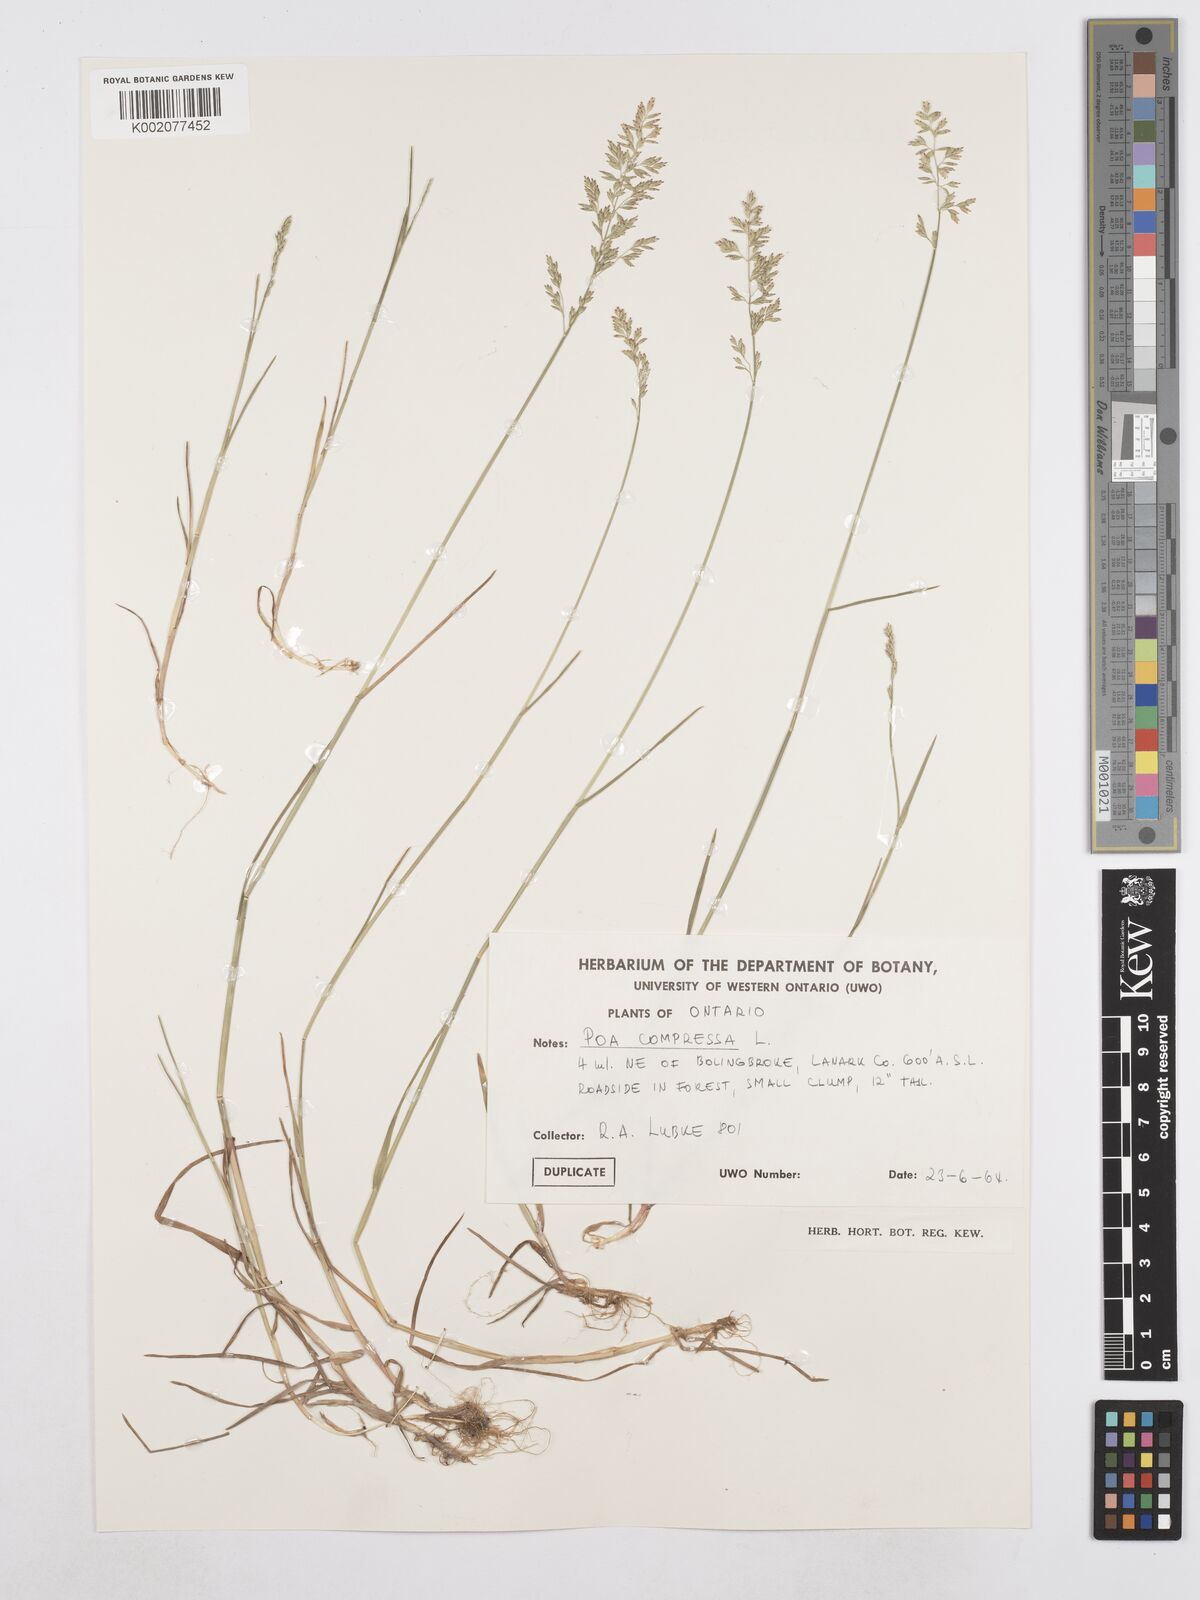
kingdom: Plantae
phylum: Tracheophyta
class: Liliopsida
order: Poales
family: Poaceae
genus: Poa
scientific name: Poa compressa
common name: Canada bluegrass
